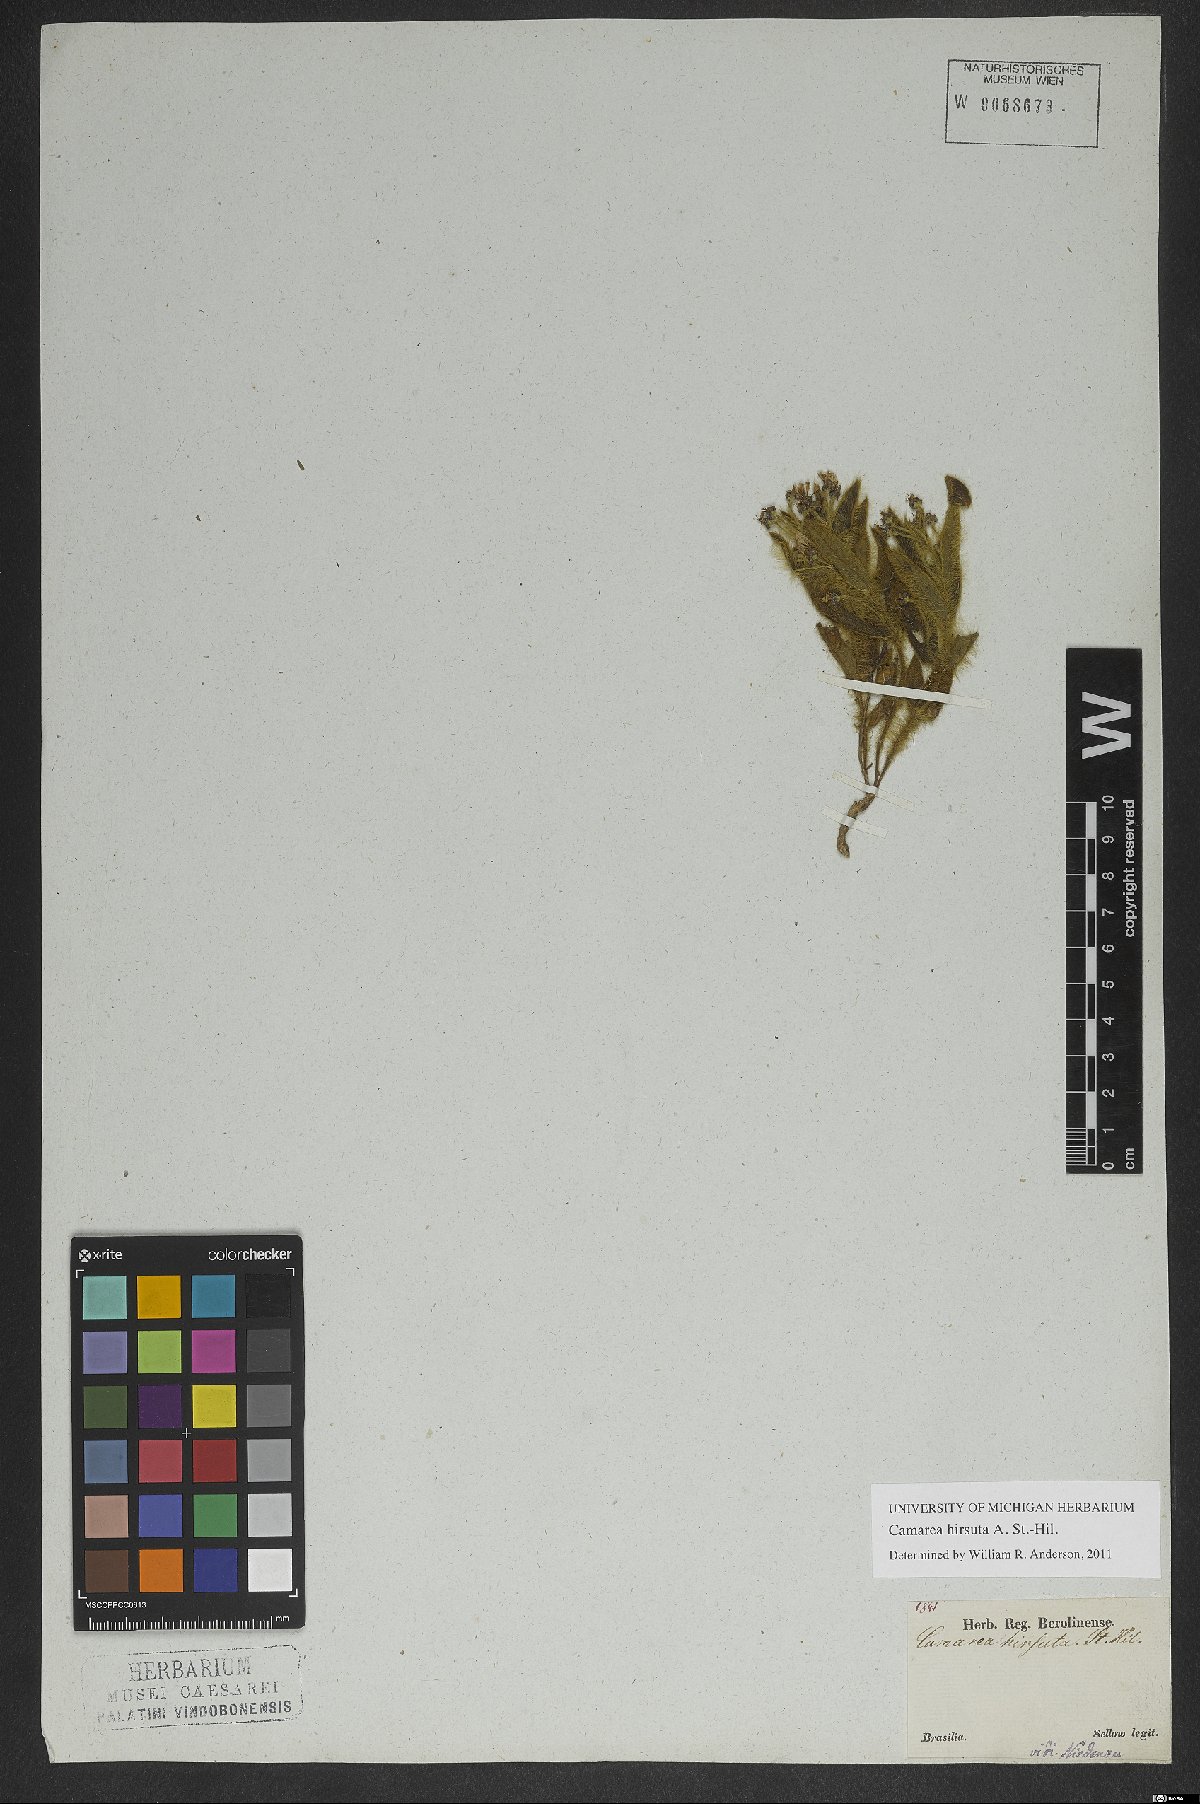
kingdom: Plantae
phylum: Tracheophyta
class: Magnoliopsida
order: Malpighiales
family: Malpighiaceae
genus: Camarea
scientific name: Camarea hirsuta
